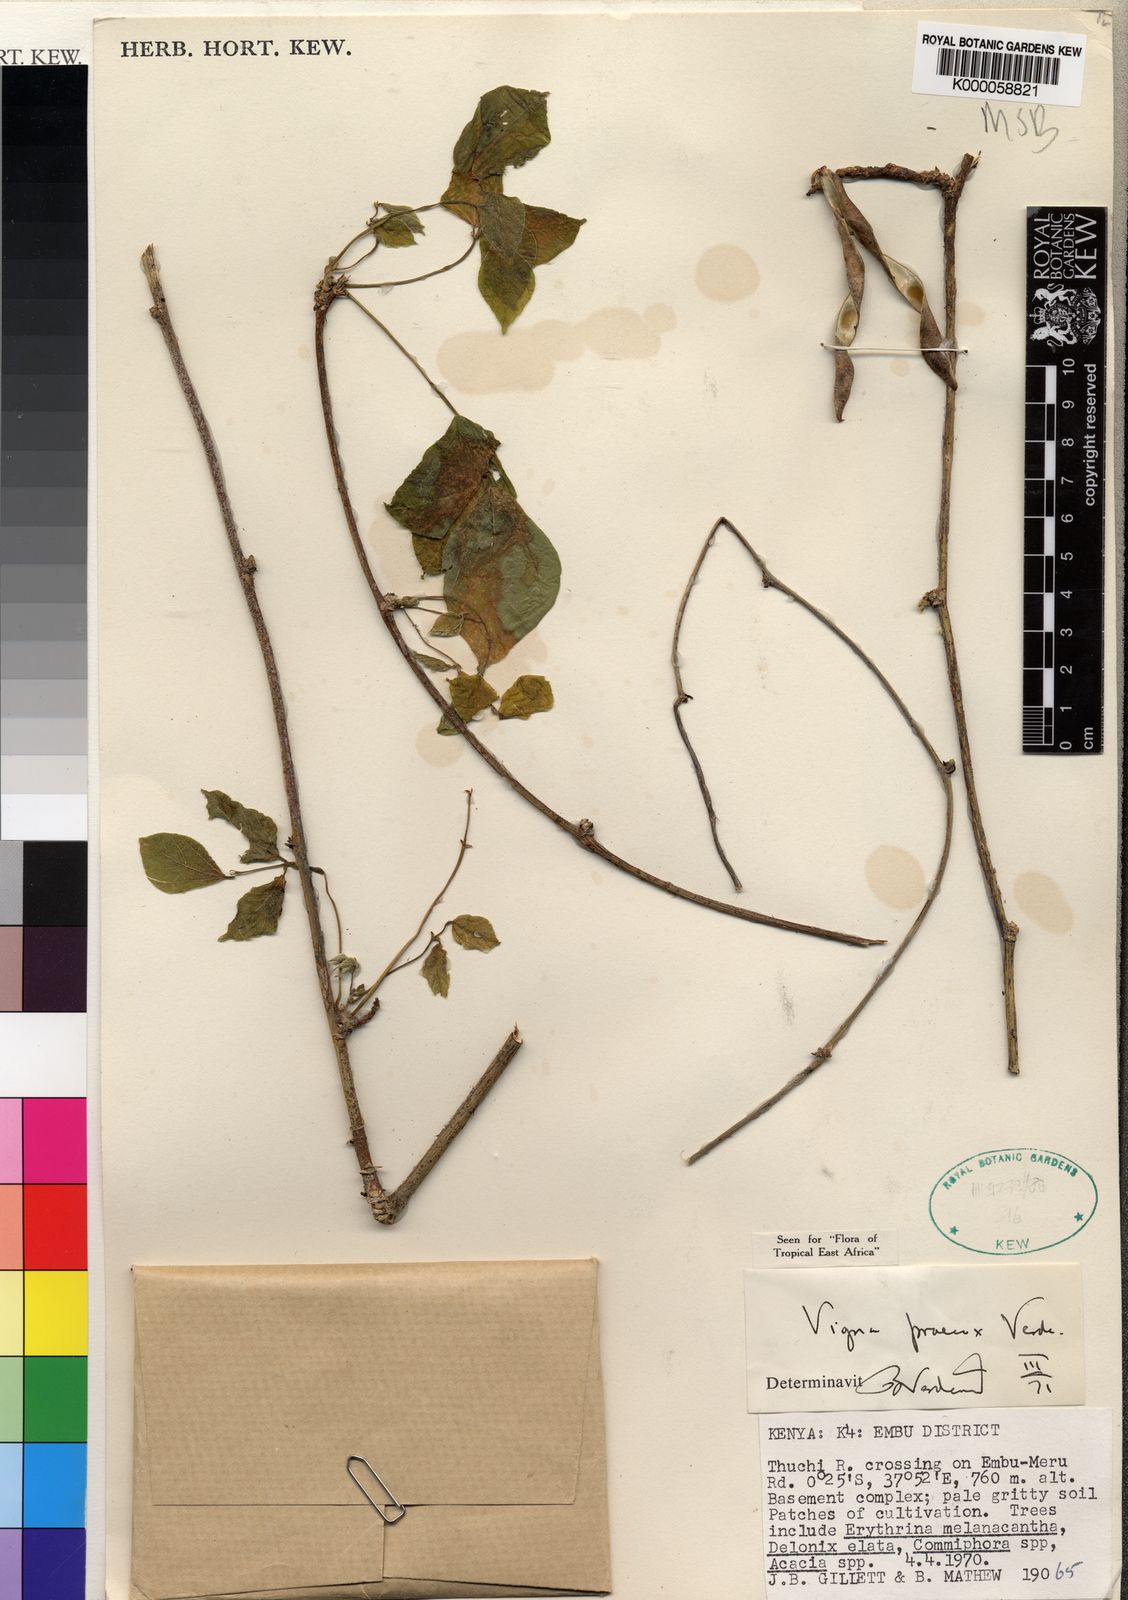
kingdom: Plantae
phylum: Tracheophyta
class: Magnoliopsida
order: Fabales
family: Fabaceae
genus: Wajira
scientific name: Wajira praecox
